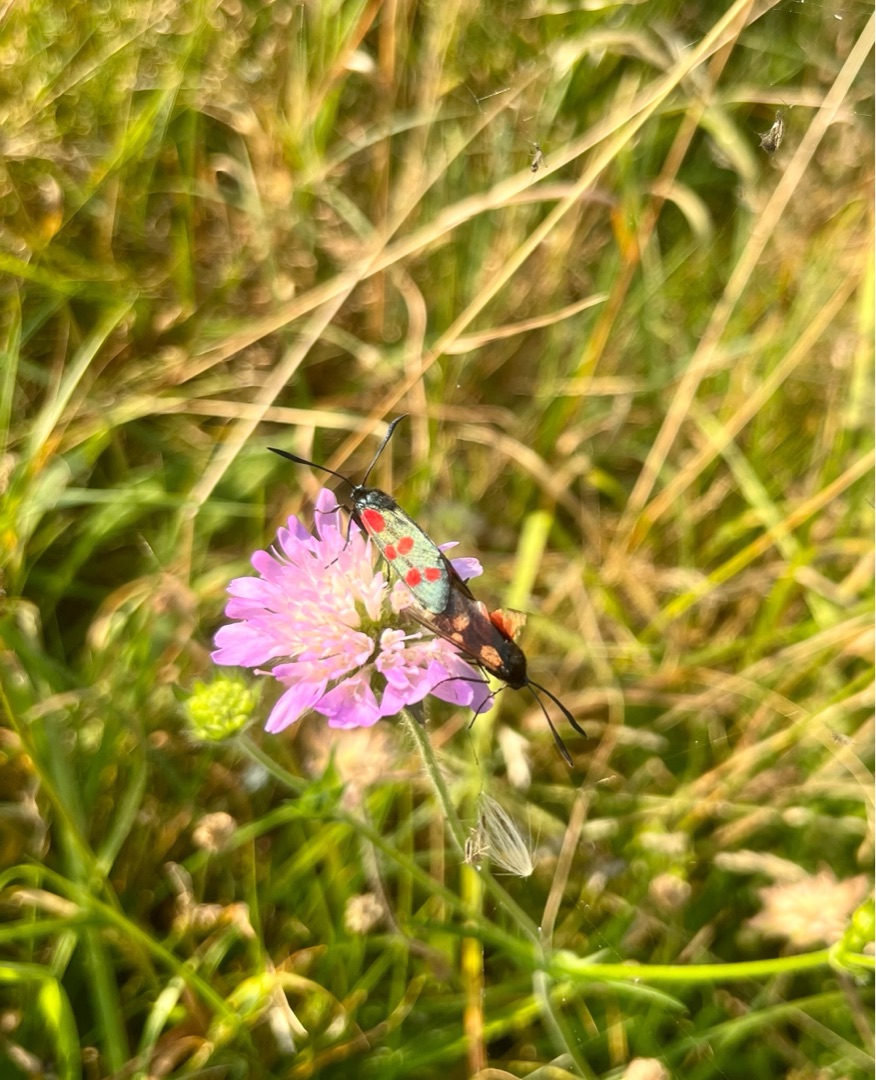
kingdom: Animalia
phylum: Arthropoda
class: Insecta
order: Lepidoptera
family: Zygaenidae
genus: Zygaena
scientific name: Zygaena filipendulae
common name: Seksplettet køllesværmer
